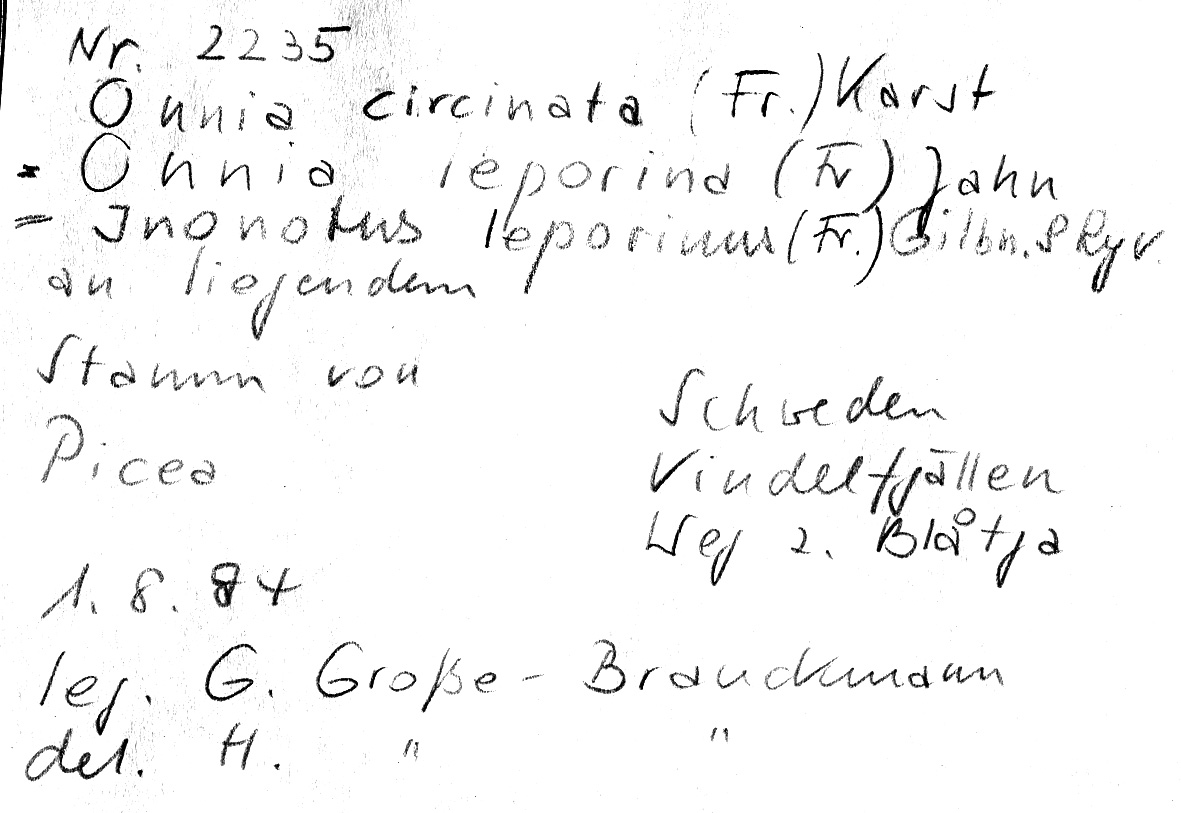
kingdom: Fungi
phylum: Basidiomycota
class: Agaricomycetes
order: Hymenochaetales
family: Hymenochaetaceae
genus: Onnia
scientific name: Onnia circinata
